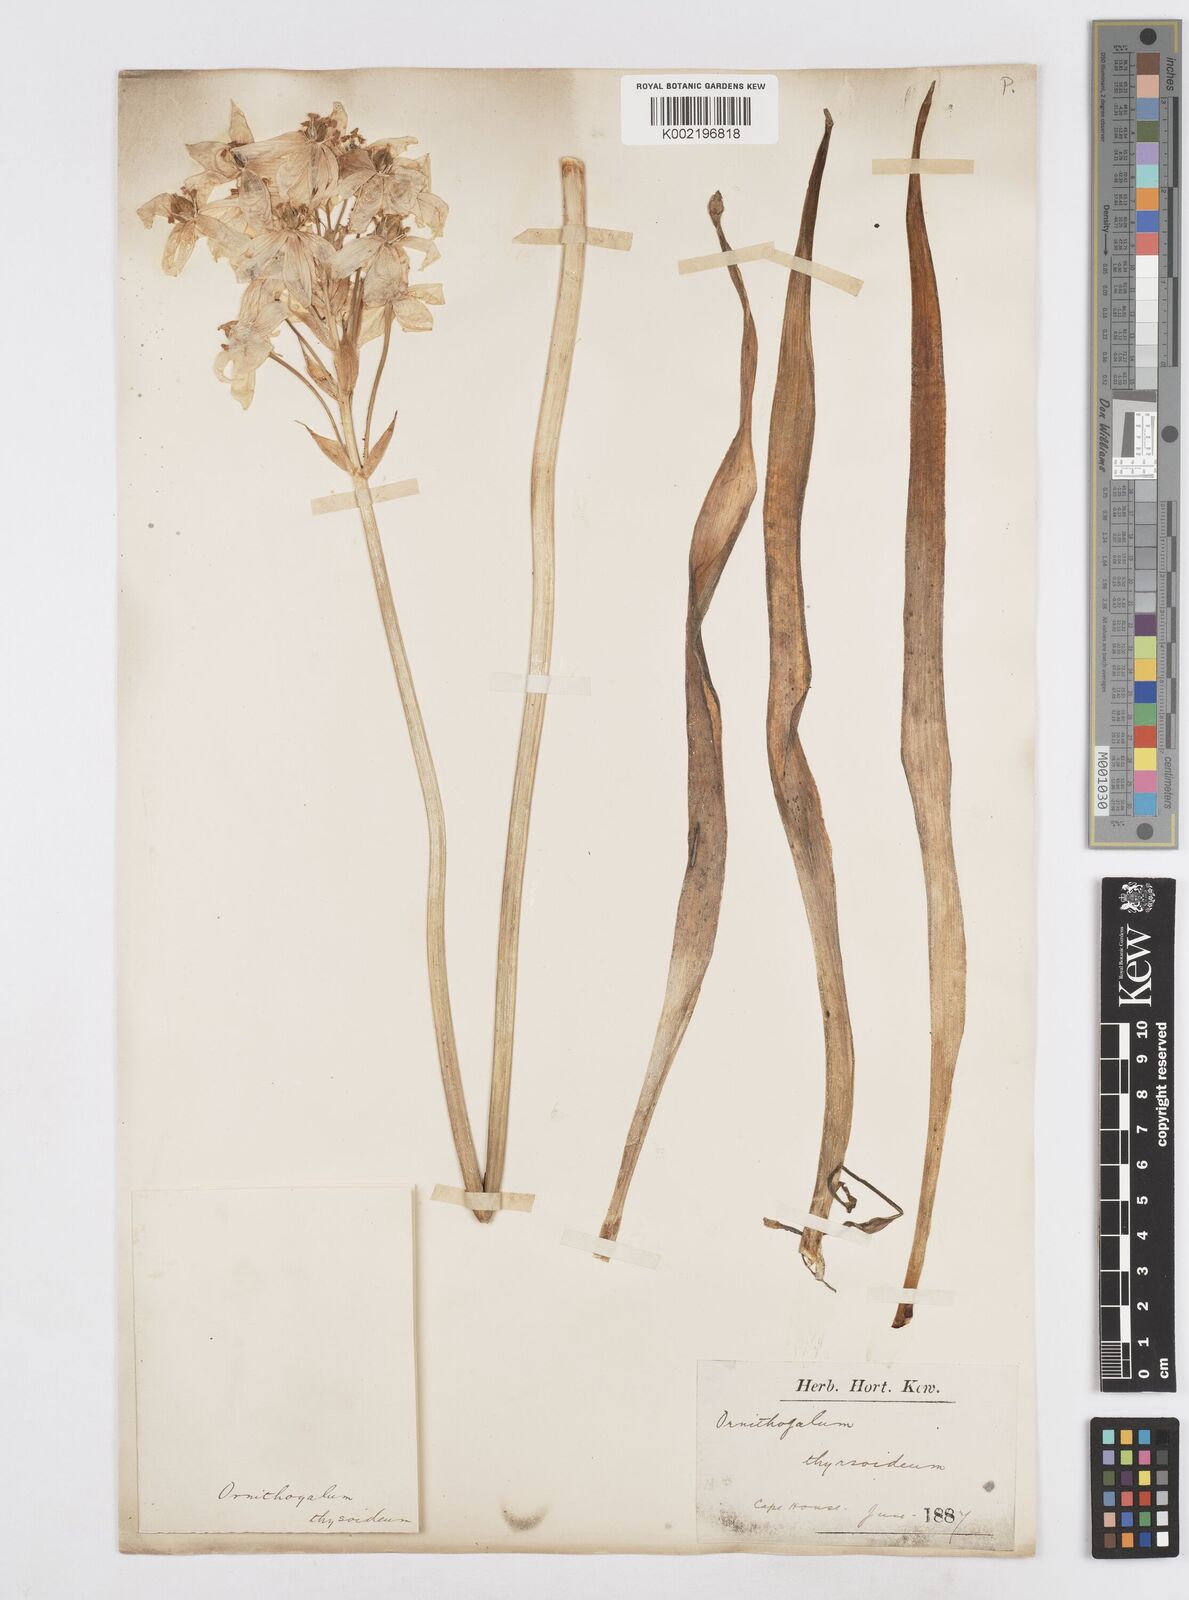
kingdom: Plantae
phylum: Tracheophyta
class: Liliopsida
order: Asparagales
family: Asparagaceae
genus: Ornithogalum
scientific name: Ornithogalum thyrsoides
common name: Chincherinchee
